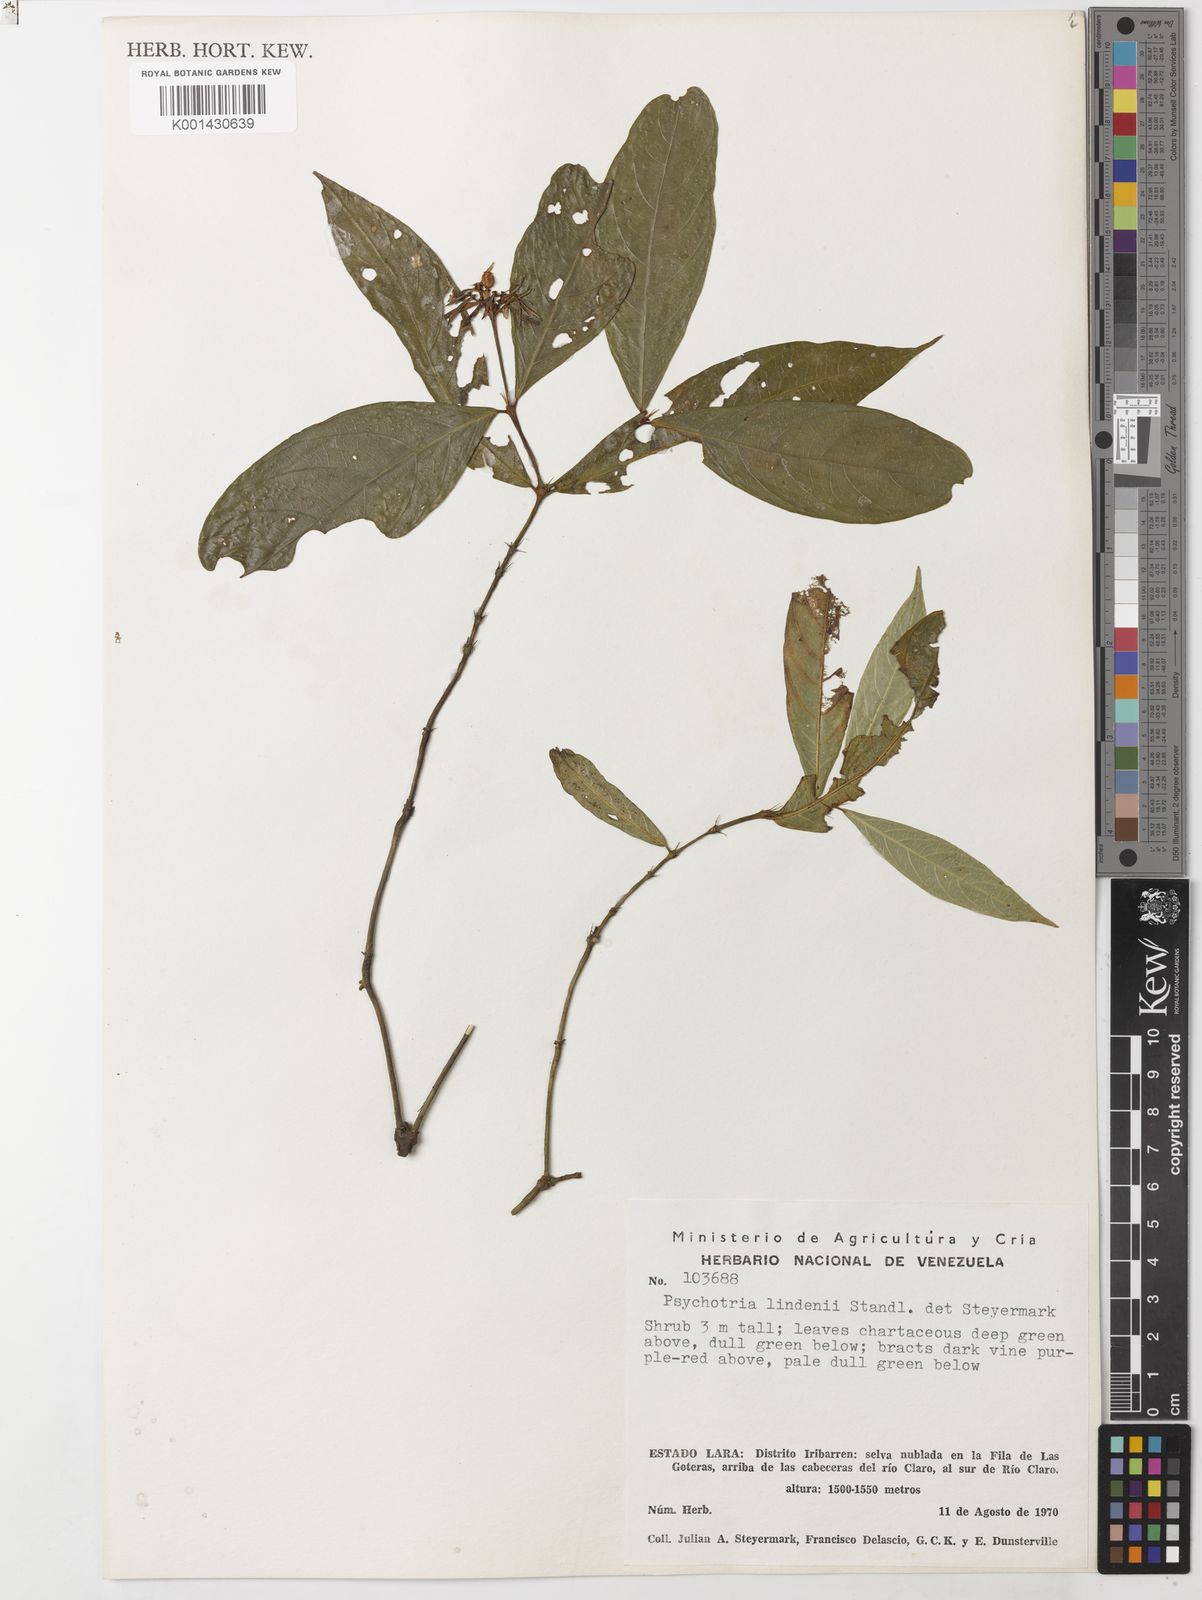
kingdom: Plantae
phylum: Tracheophyta
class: Magnoliopsida
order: Gentianales
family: Rubiaceae
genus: Palicourea
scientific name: Palicourea raveniana
